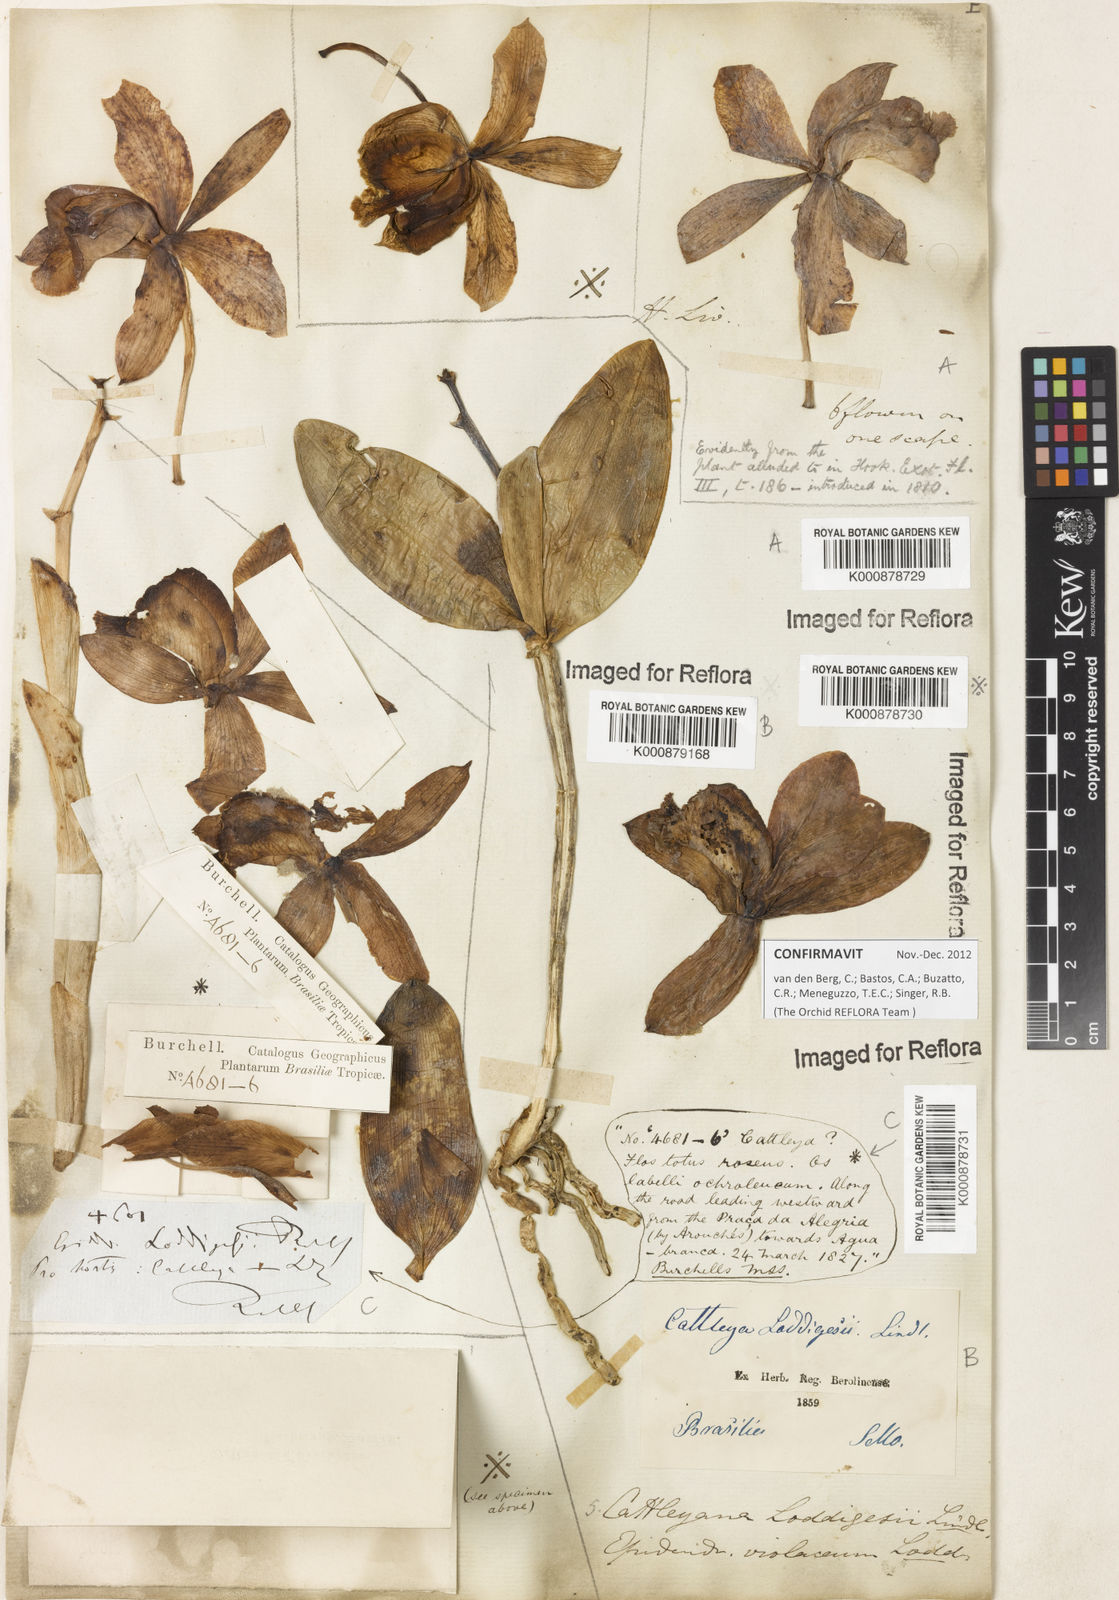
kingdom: Plantae
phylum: Tracheophyta
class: Liliopsida
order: Asparagales
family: Orchidaceae
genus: Cattleya
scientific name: Cattleya loddigesii
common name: Loddiges's cattleya
